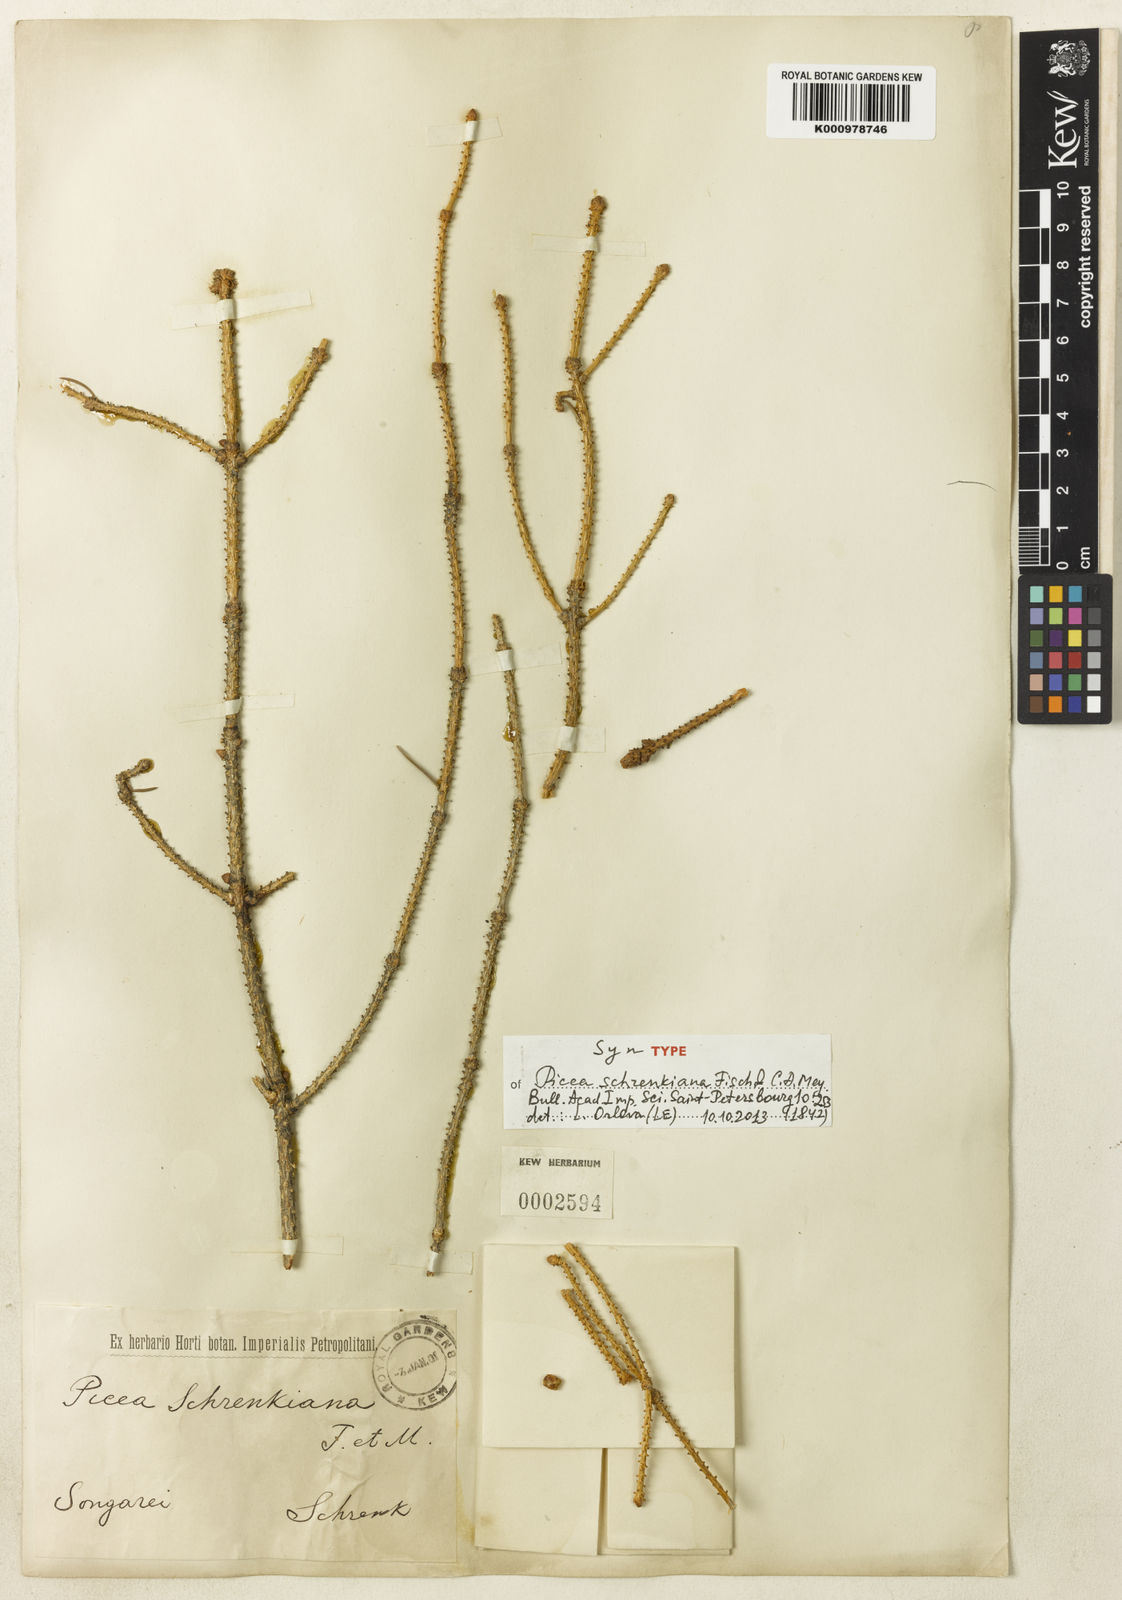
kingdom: Plantae
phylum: Tracheophyta
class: Pinopsida
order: Pinales
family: Pinaceae
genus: Picea
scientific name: Picea schrenkiana
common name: Asian spruce
